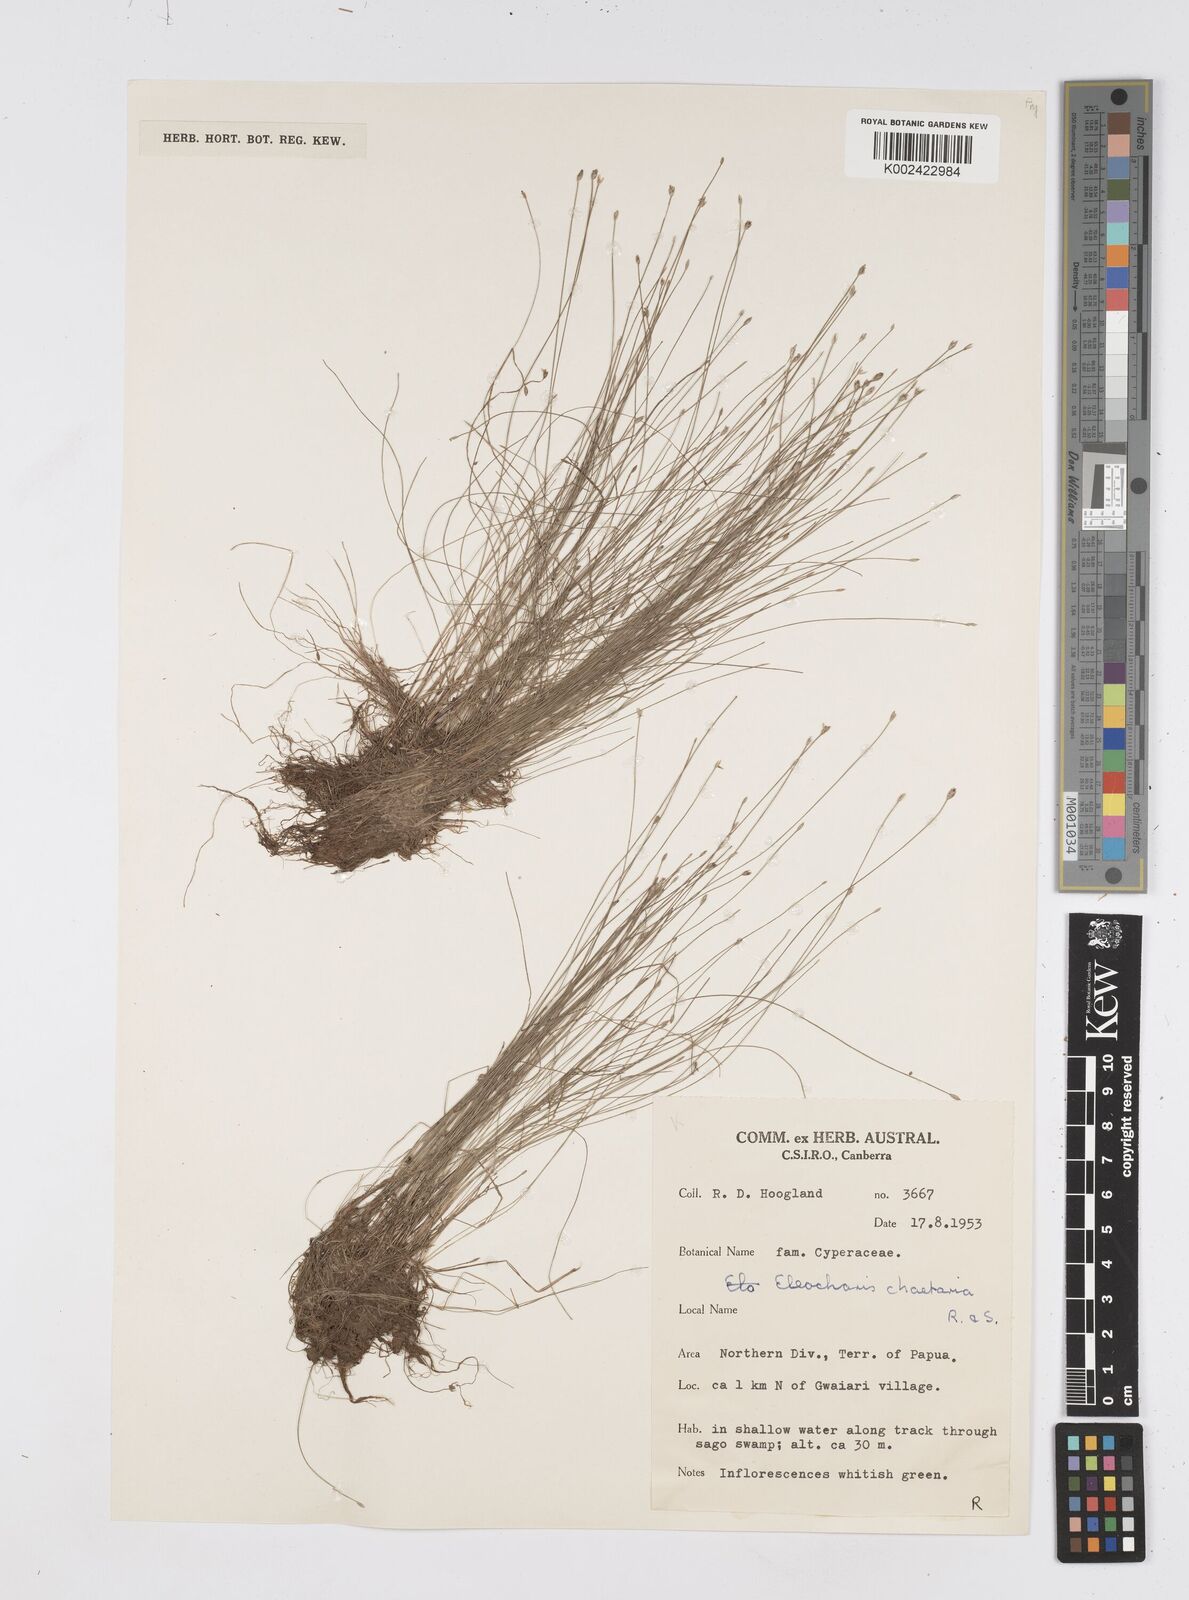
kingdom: Plantae
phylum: Tracheophyta
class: Liliopsida
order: Poales
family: Cyperaceae
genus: Eleocharis
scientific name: Eleocharis retroflexa
